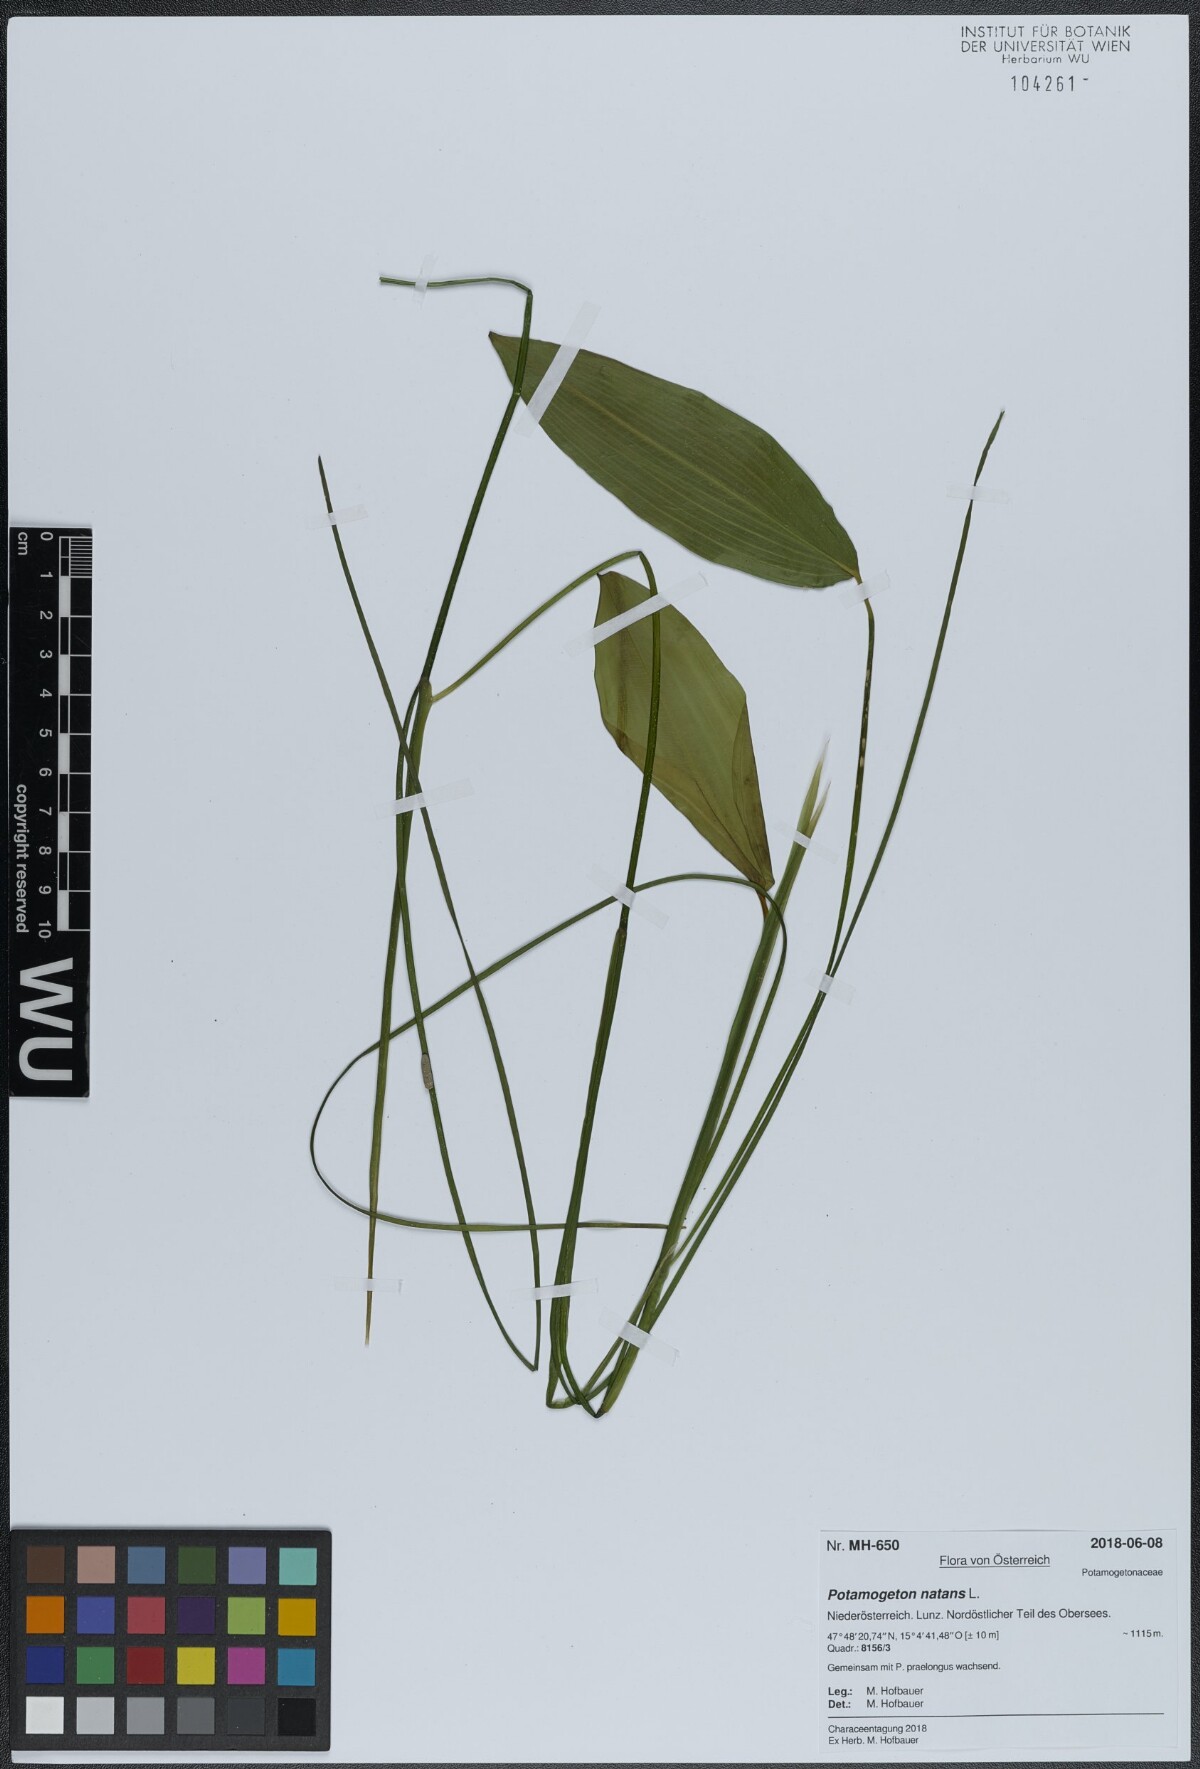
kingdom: Plantae
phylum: Tracheophyta
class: Liliopsida
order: Alismatales
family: Potamogetonaceae
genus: Potamogeton
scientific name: Potamogeton natans
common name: Broad-leaved pondweed
